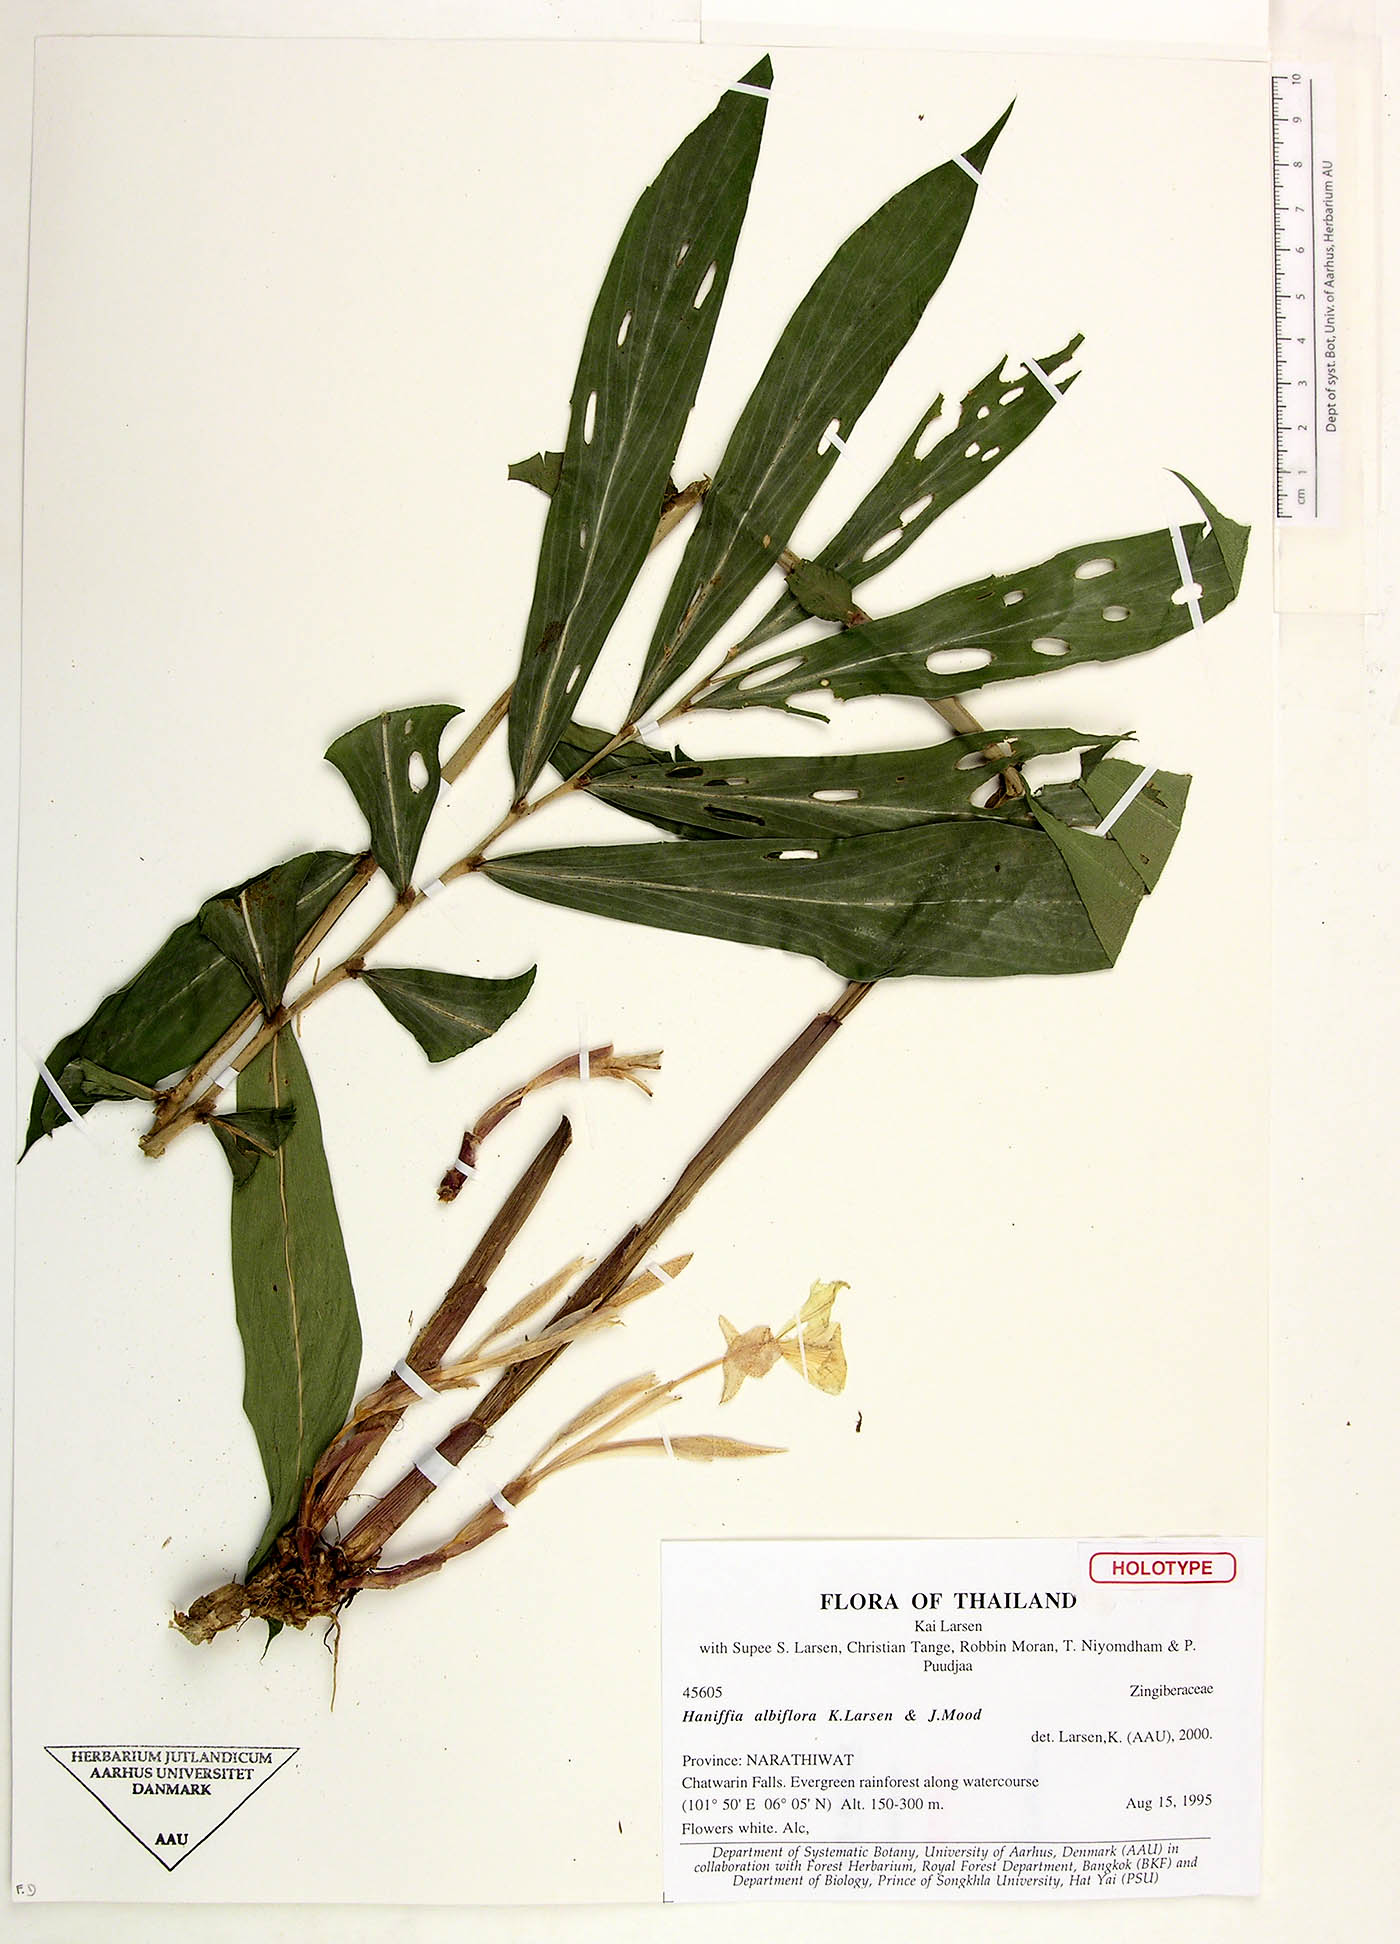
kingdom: Plantae
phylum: Tracheophyta
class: Liliopsida
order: Zingiberales
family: Zingiberaceae
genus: Haniffia
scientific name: Haniffia albiflora
